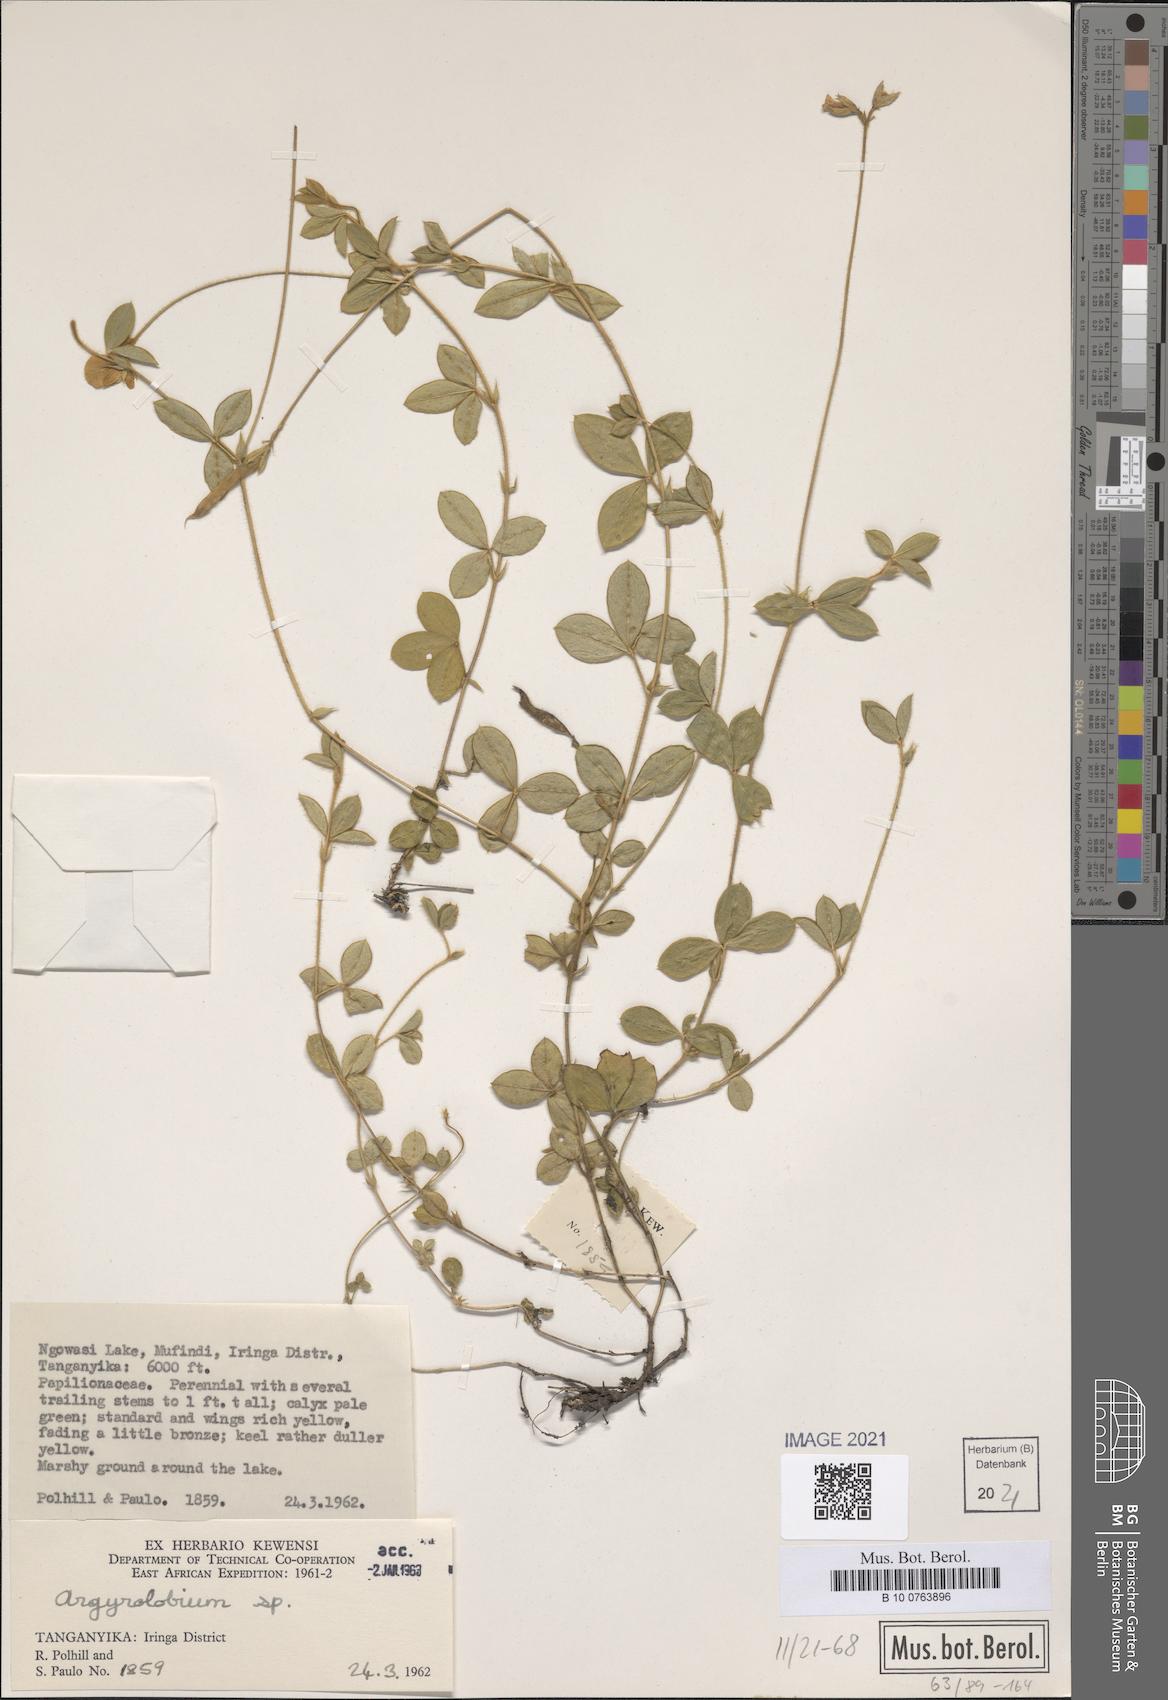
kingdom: Plantae
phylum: Tracheophyta
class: Magnoliopsida
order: Fabales
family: Fabaceae
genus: Argyrolobium
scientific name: Argyrolobium
